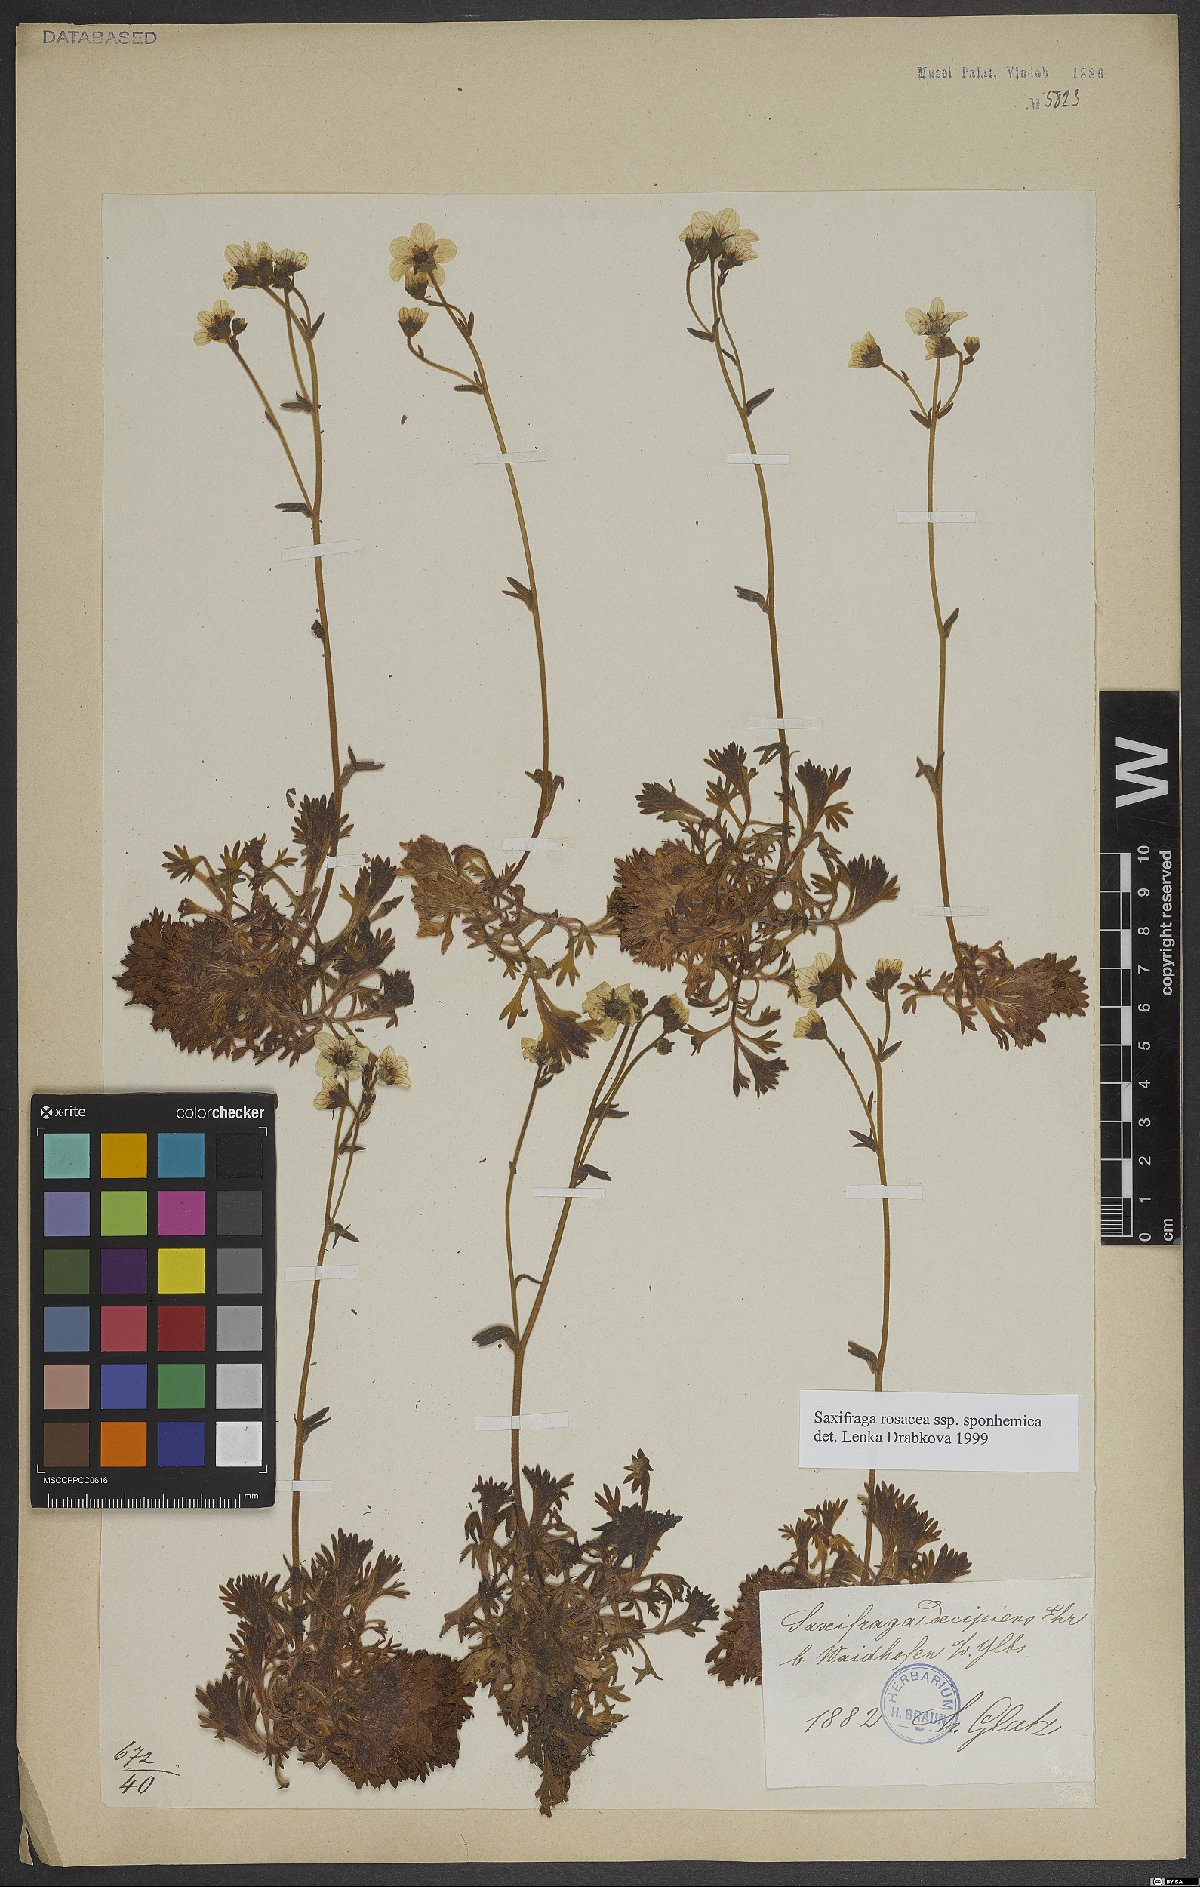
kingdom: Plantae
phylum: Tracheophyta
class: Magnoliopsida
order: Saxifragales
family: Saxifragaceae
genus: Saxifraga
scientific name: Saxifraga rosacea
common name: Irish saxifrage
